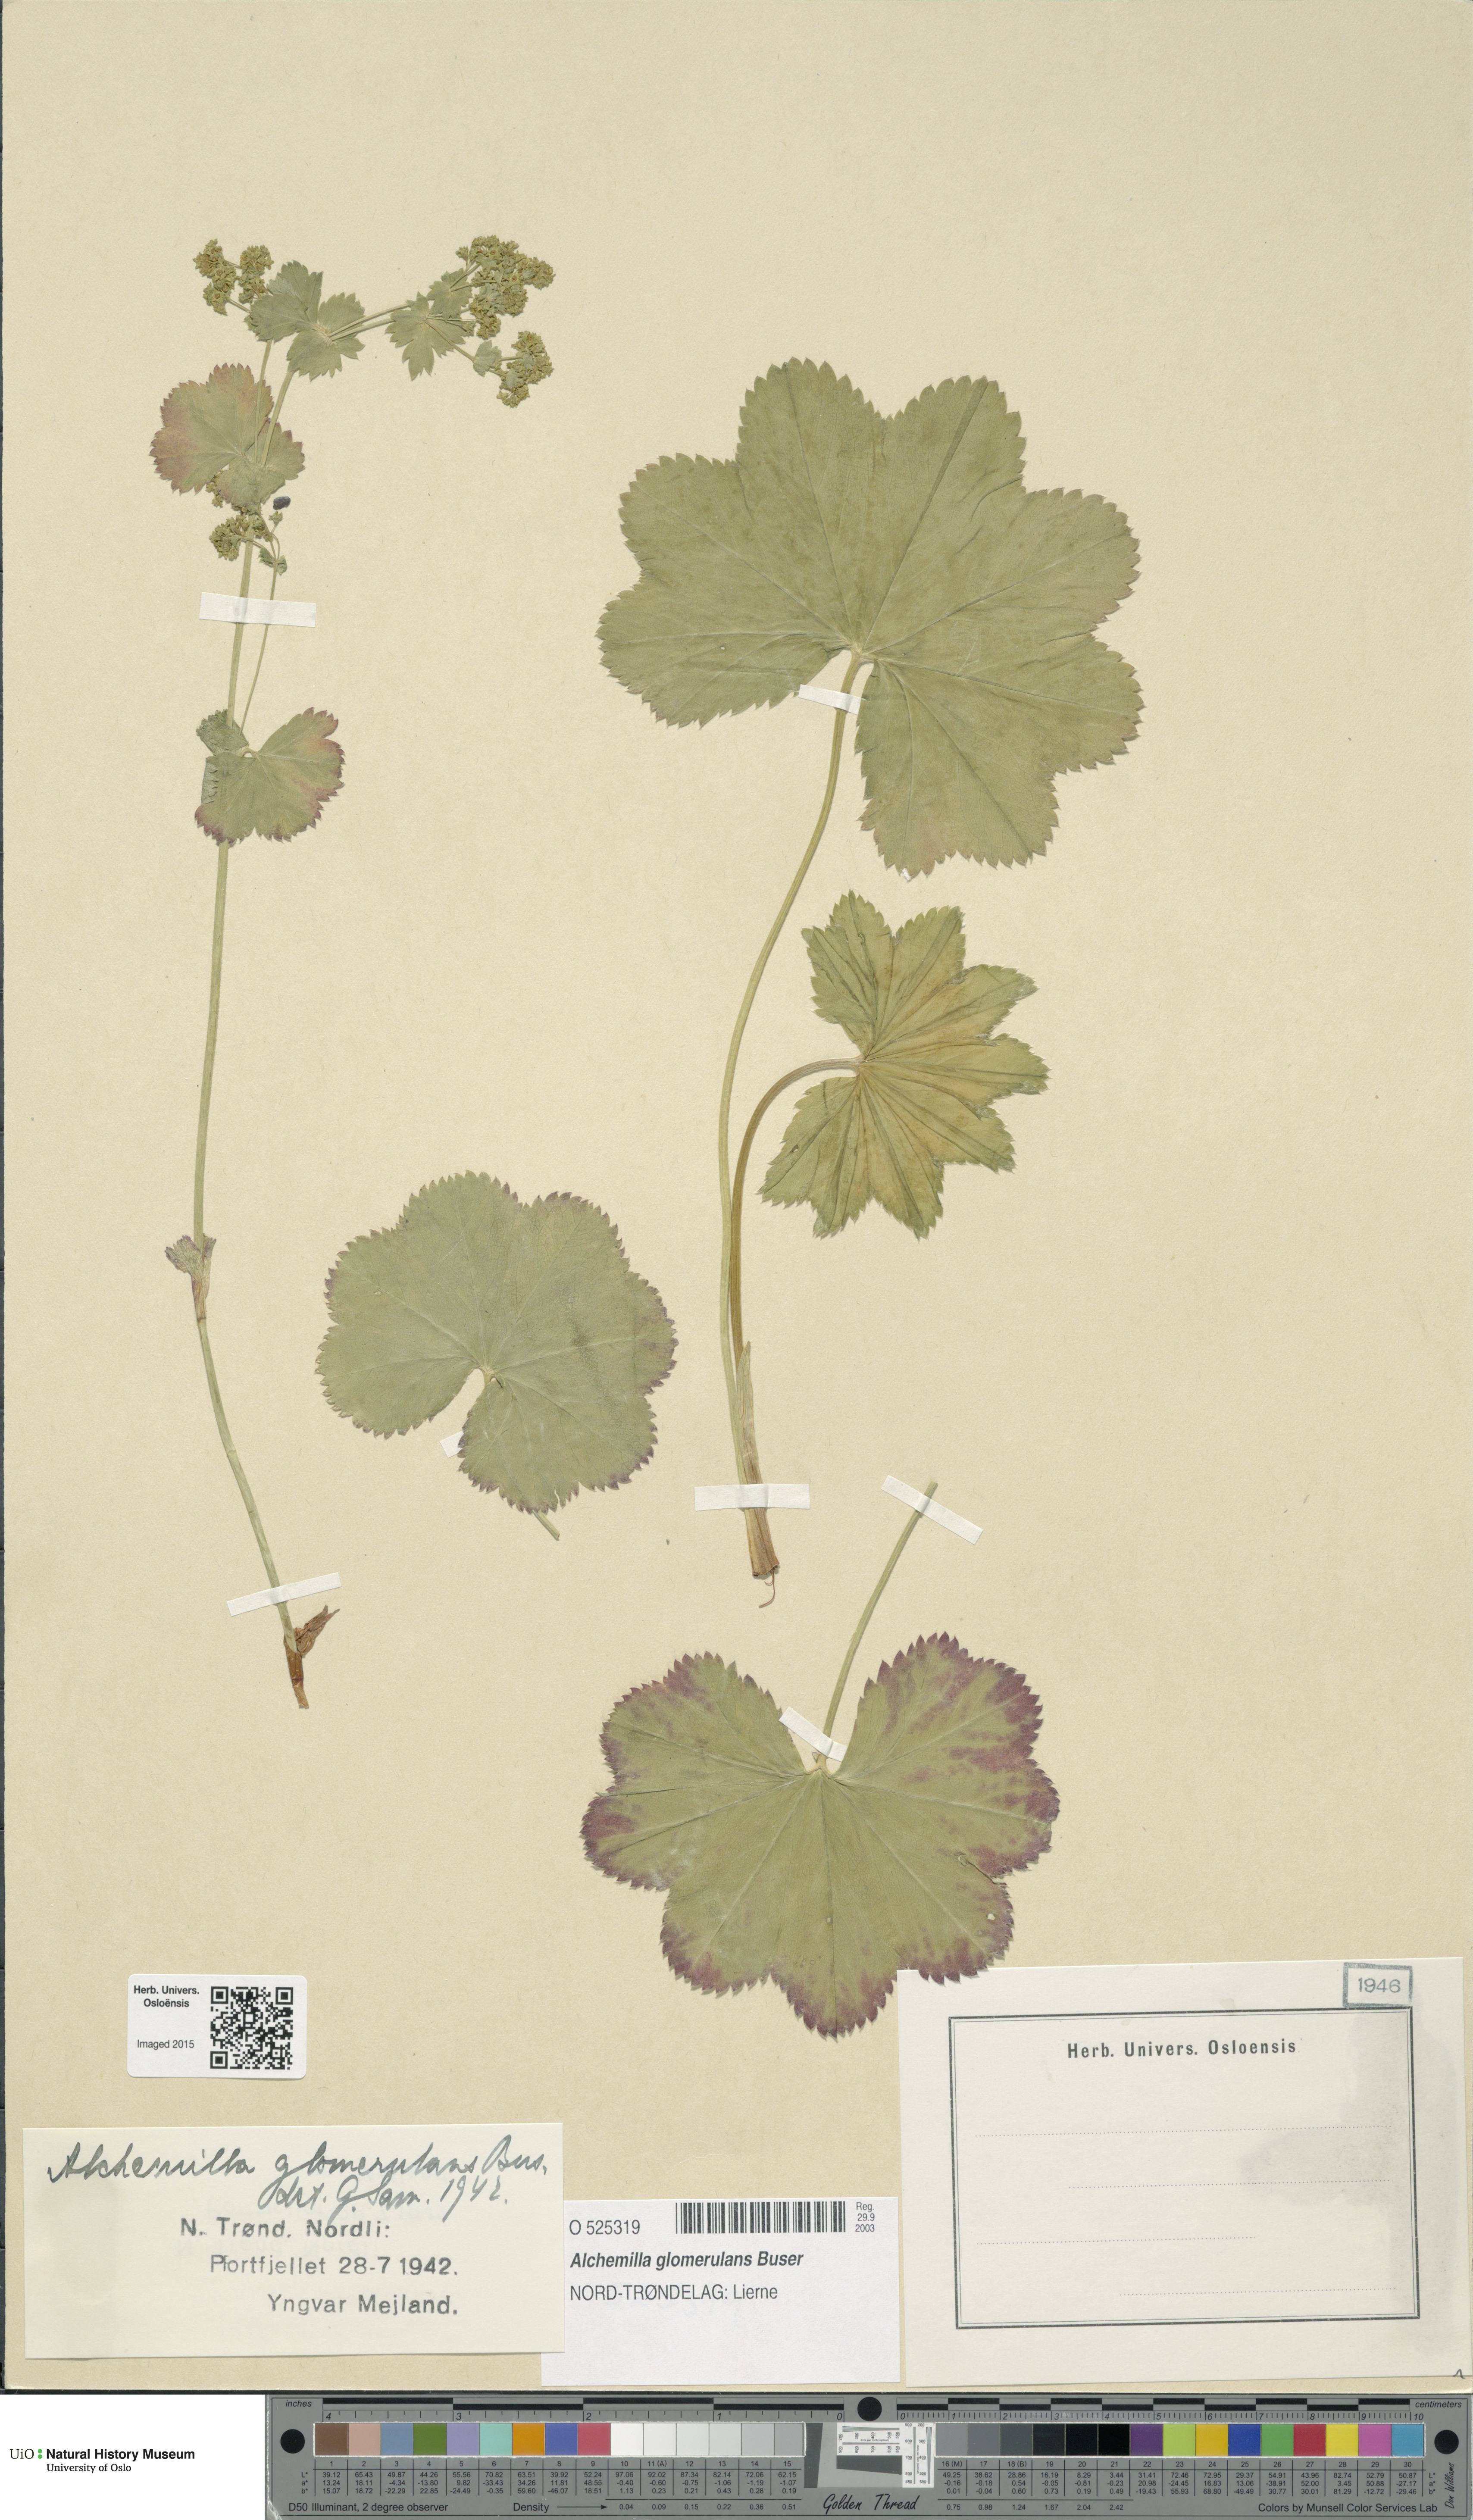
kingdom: Plantae
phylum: Tracheophyta
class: Magnoliopsida
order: Rosales
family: Rosaceae
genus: Alchemilla
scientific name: Alchemilla glomerulans
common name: Clustered lady's mantle
